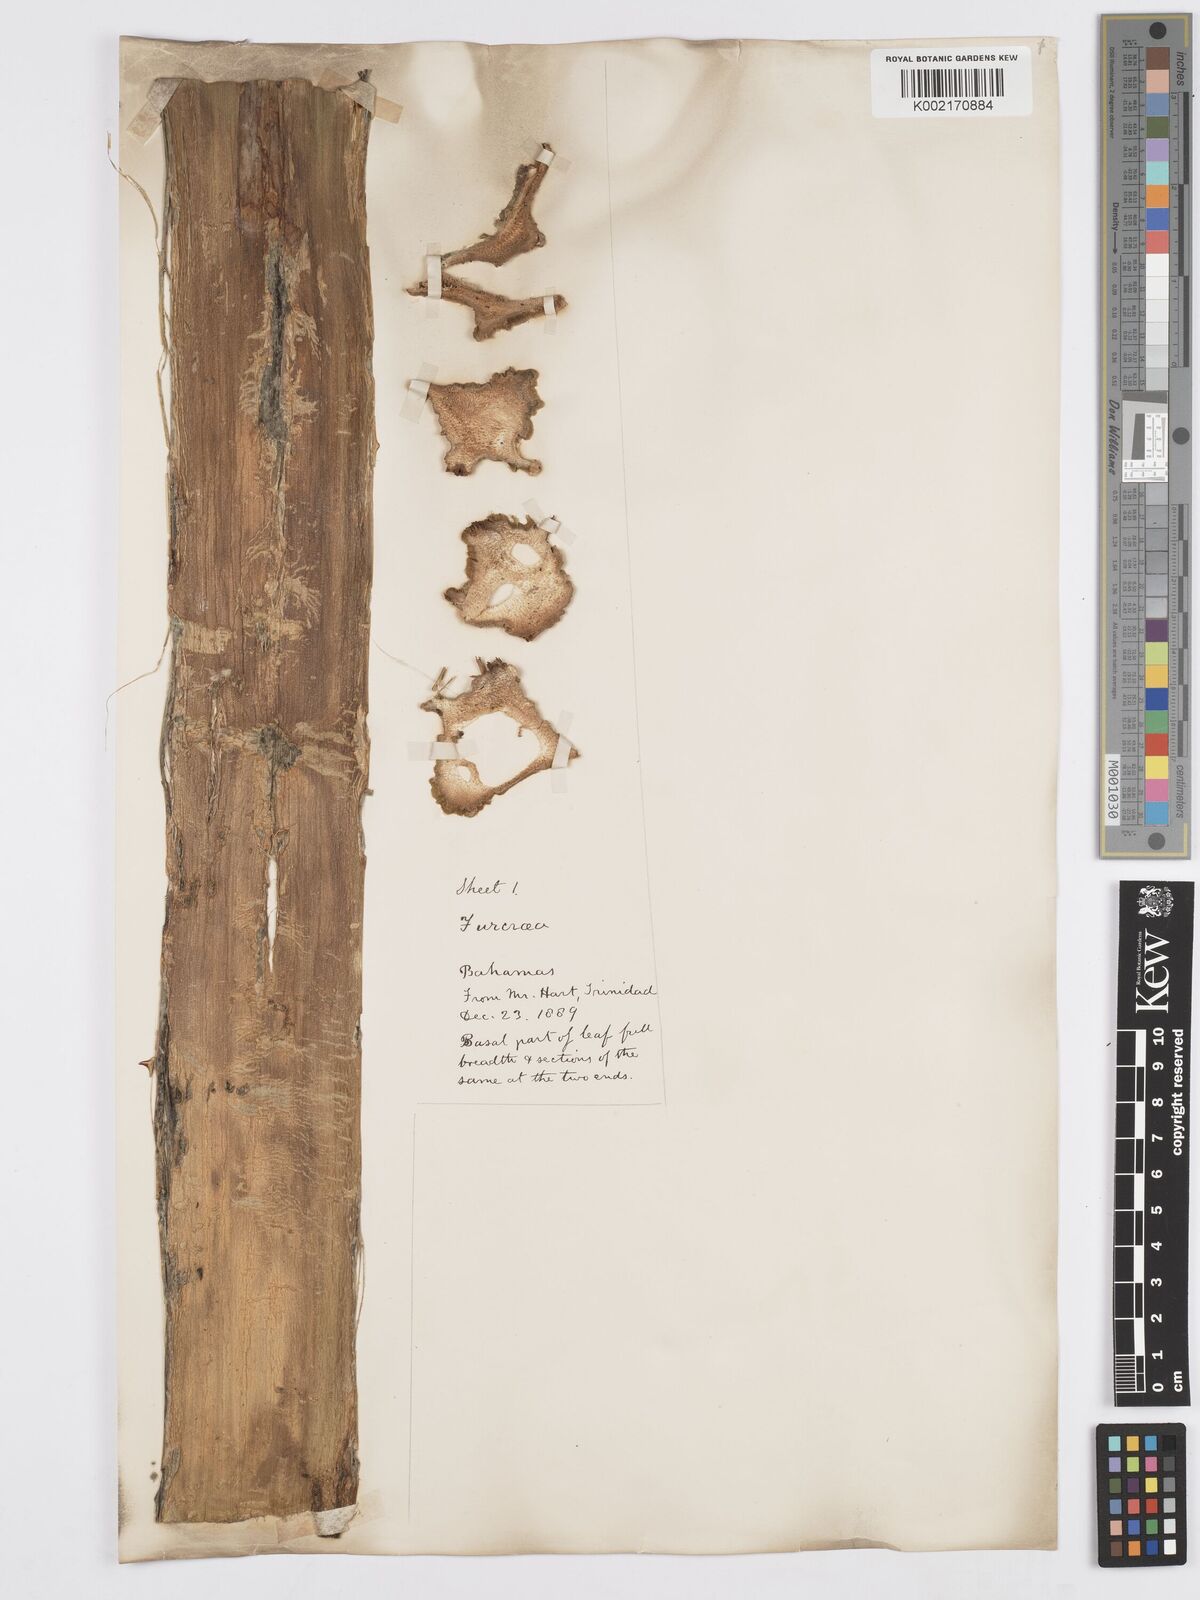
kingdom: Plantae
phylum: Tracheophyta
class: Liliopsida
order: Asparagales
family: Asparagaceae
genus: Furcraea
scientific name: Furcraea hexapetala
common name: Cuban-hemp
